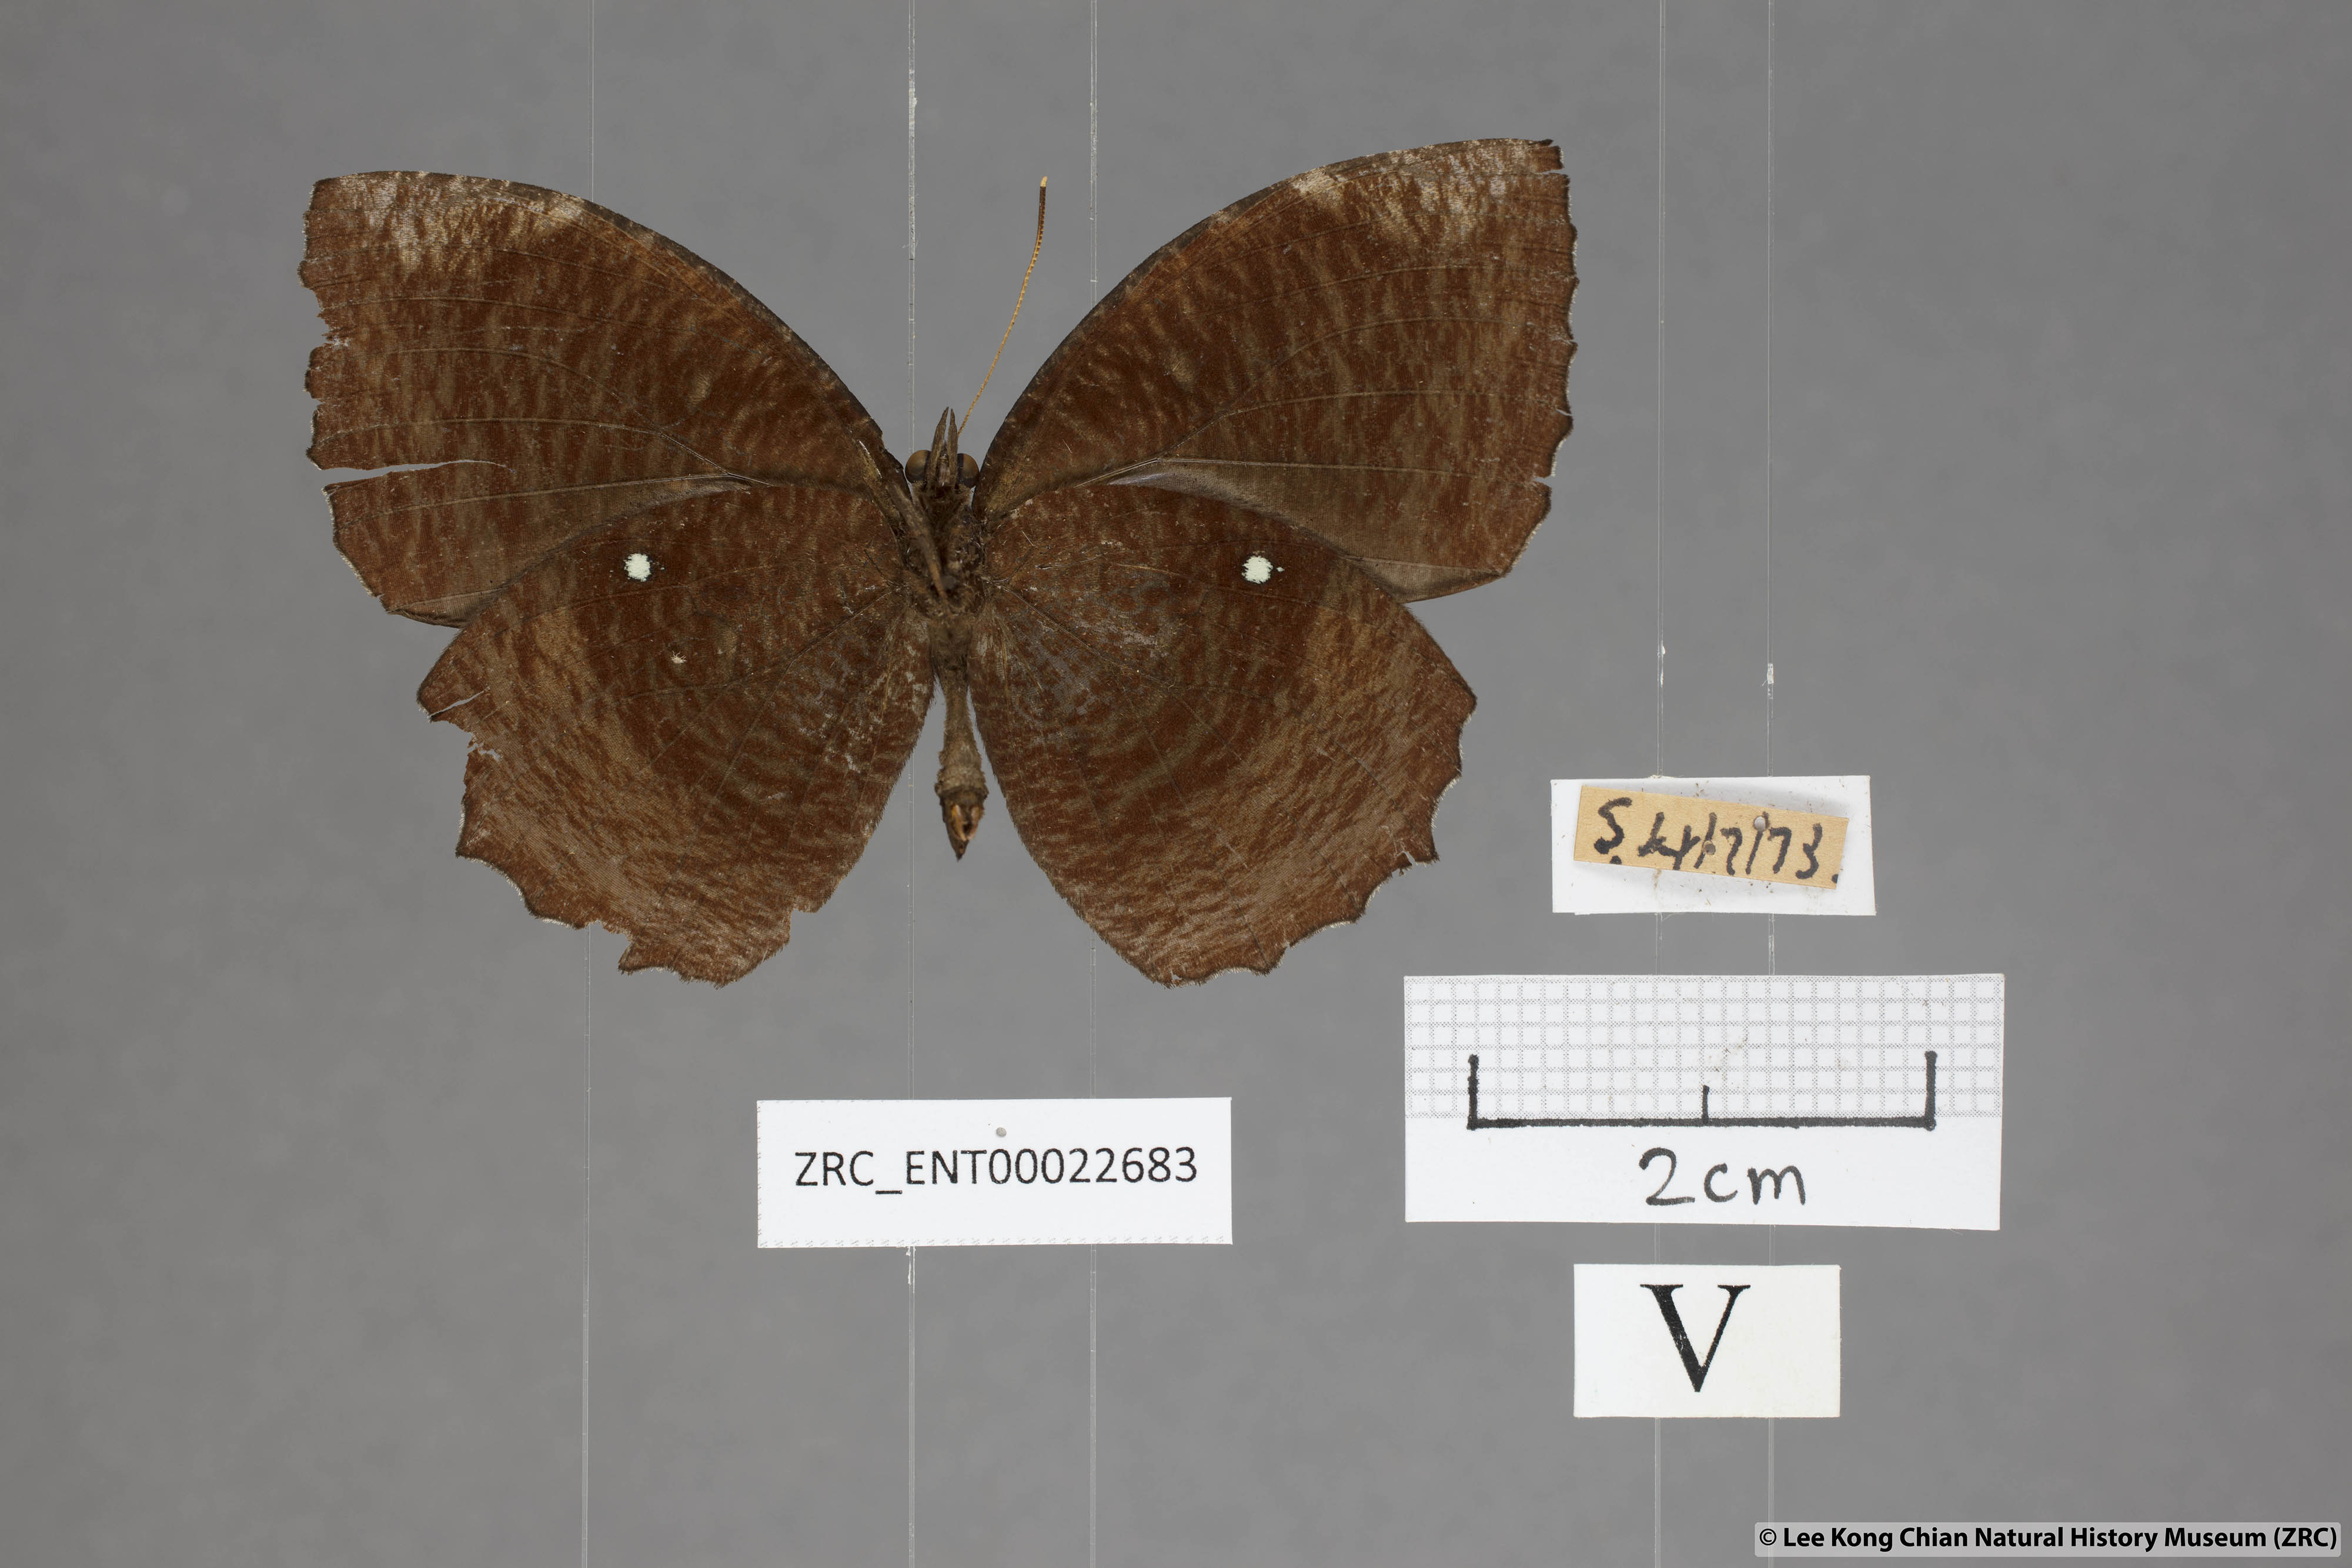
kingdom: Animalia
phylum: Arthropoda
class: Insecta
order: Lepidoptera
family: Nymphalidae
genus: Elymnias
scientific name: Elymnias hypermnestra
